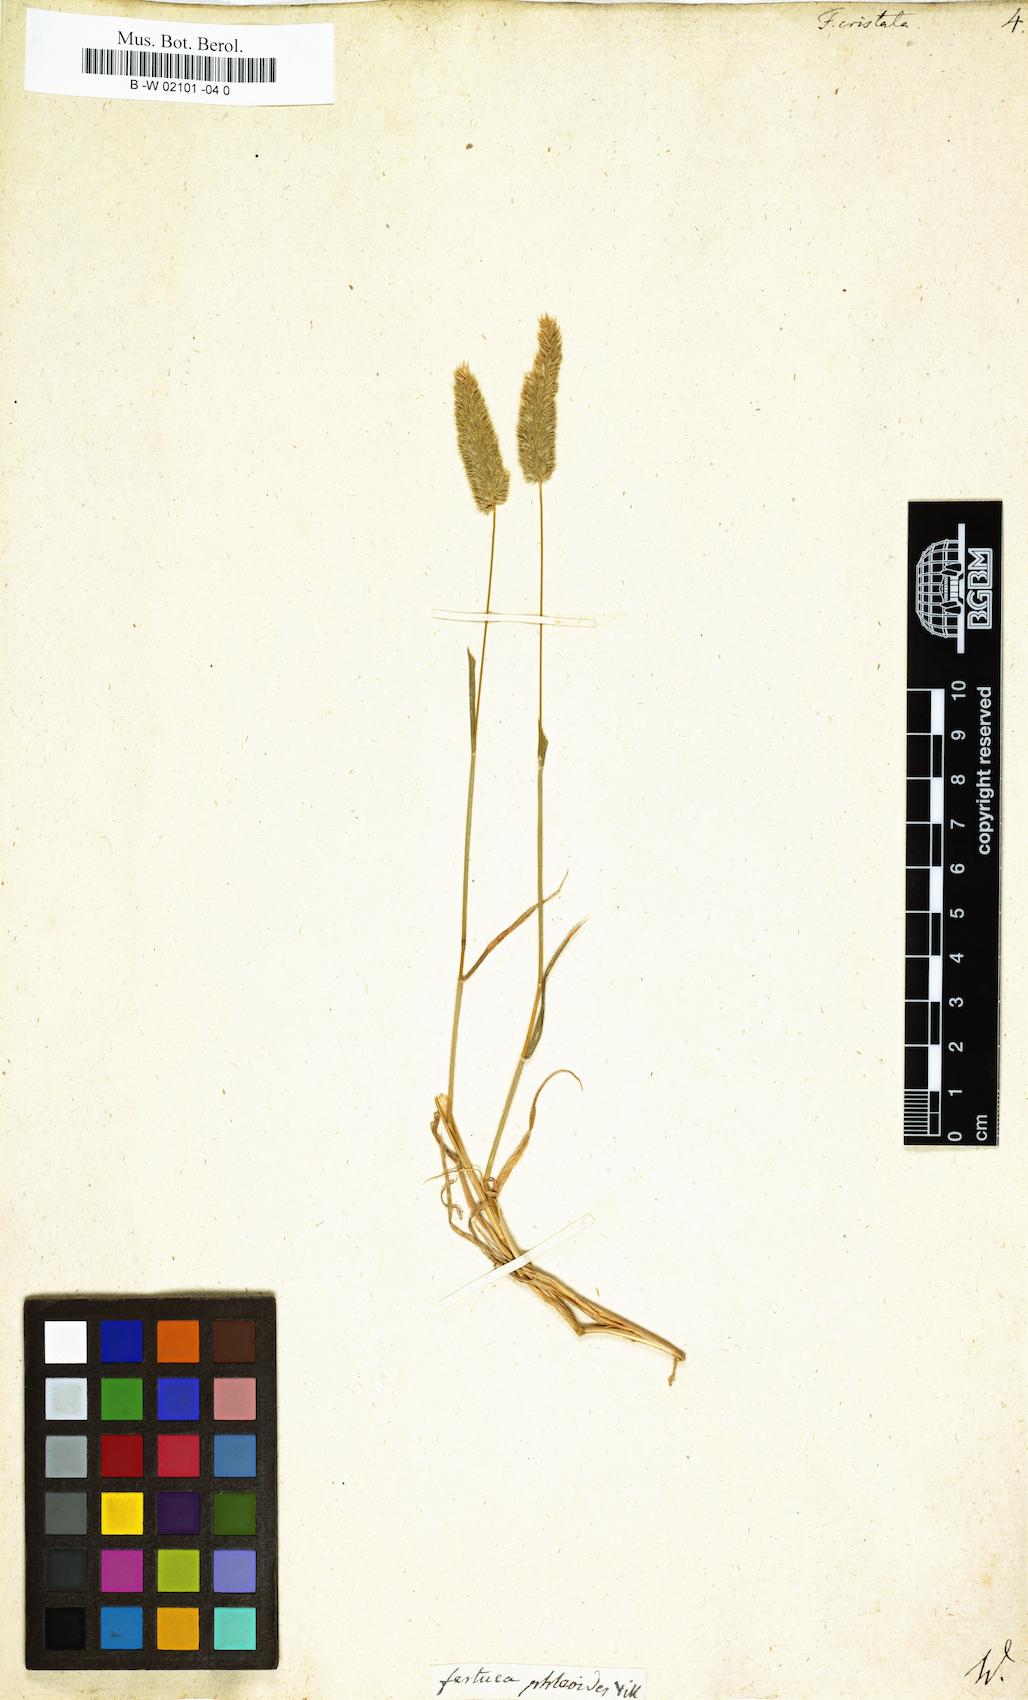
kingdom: Plantae
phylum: Tracheophyta
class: Liliopsida
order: Poales
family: Poaceae
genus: Rostraria
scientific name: Rostraria cristata
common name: Mediterranean hair-grass
